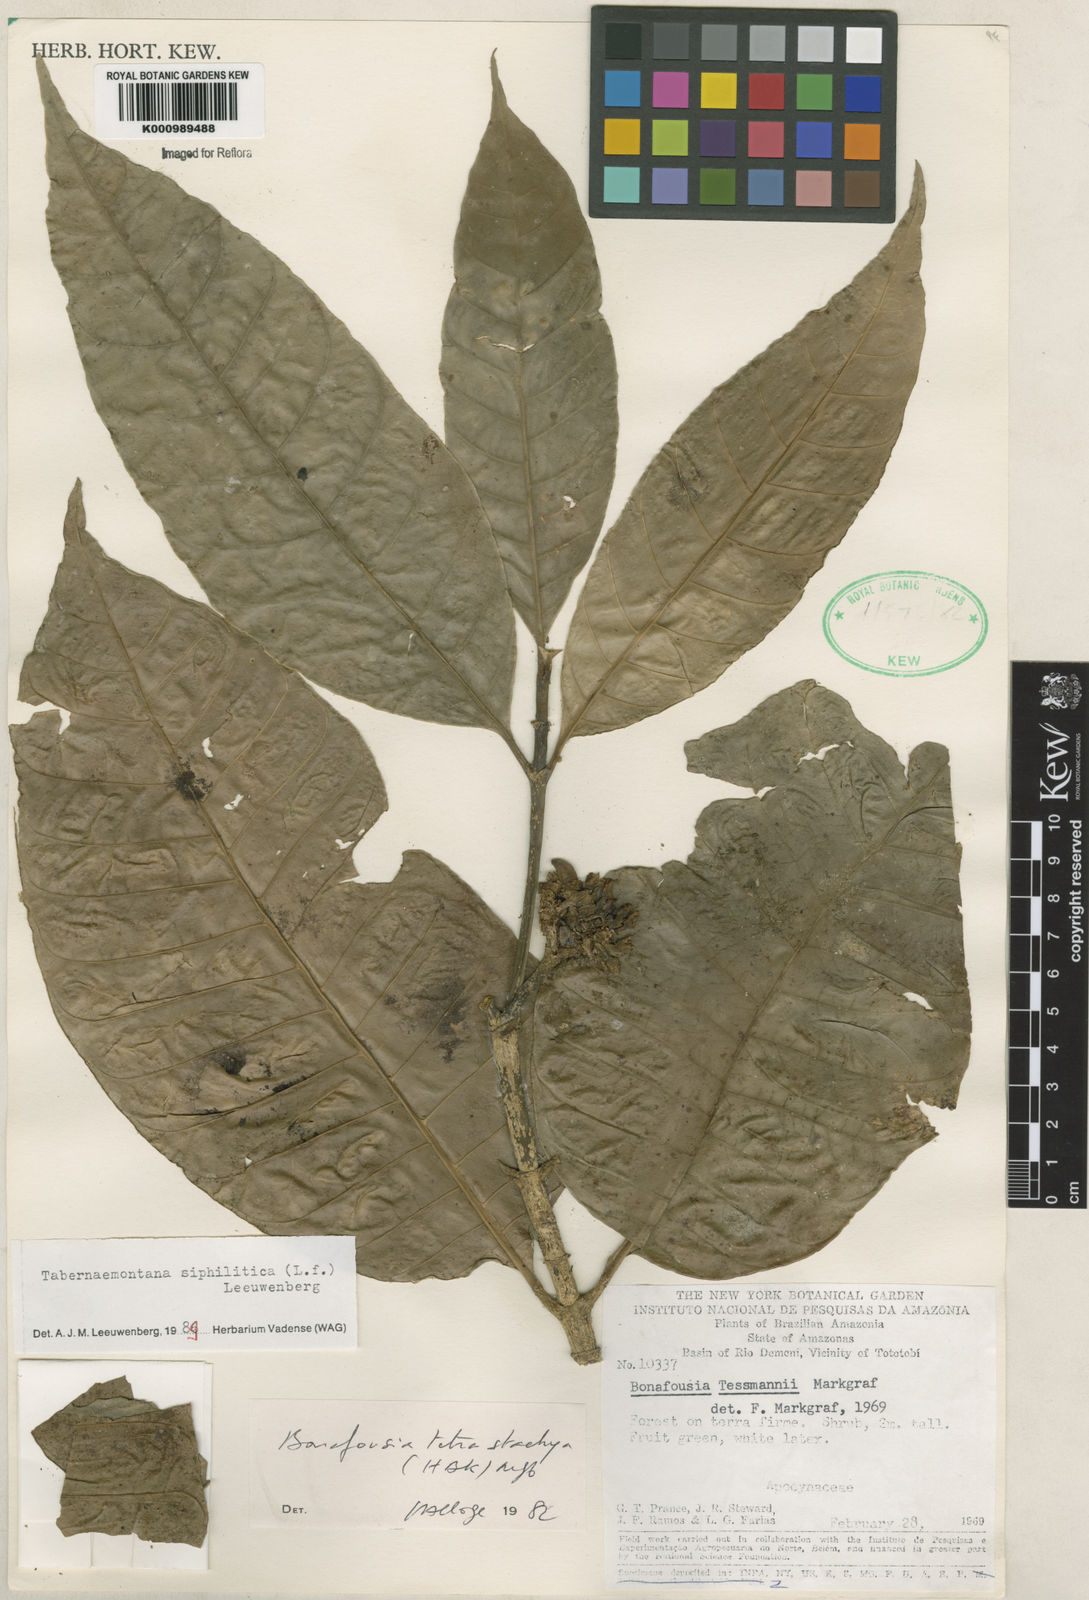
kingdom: Plantae
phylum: Tracheophyta
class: Magnoliopsida
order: Gentianales
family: Apocynaceae
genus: Tabernaemontana
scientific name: Tabernaemontana siphilitica
